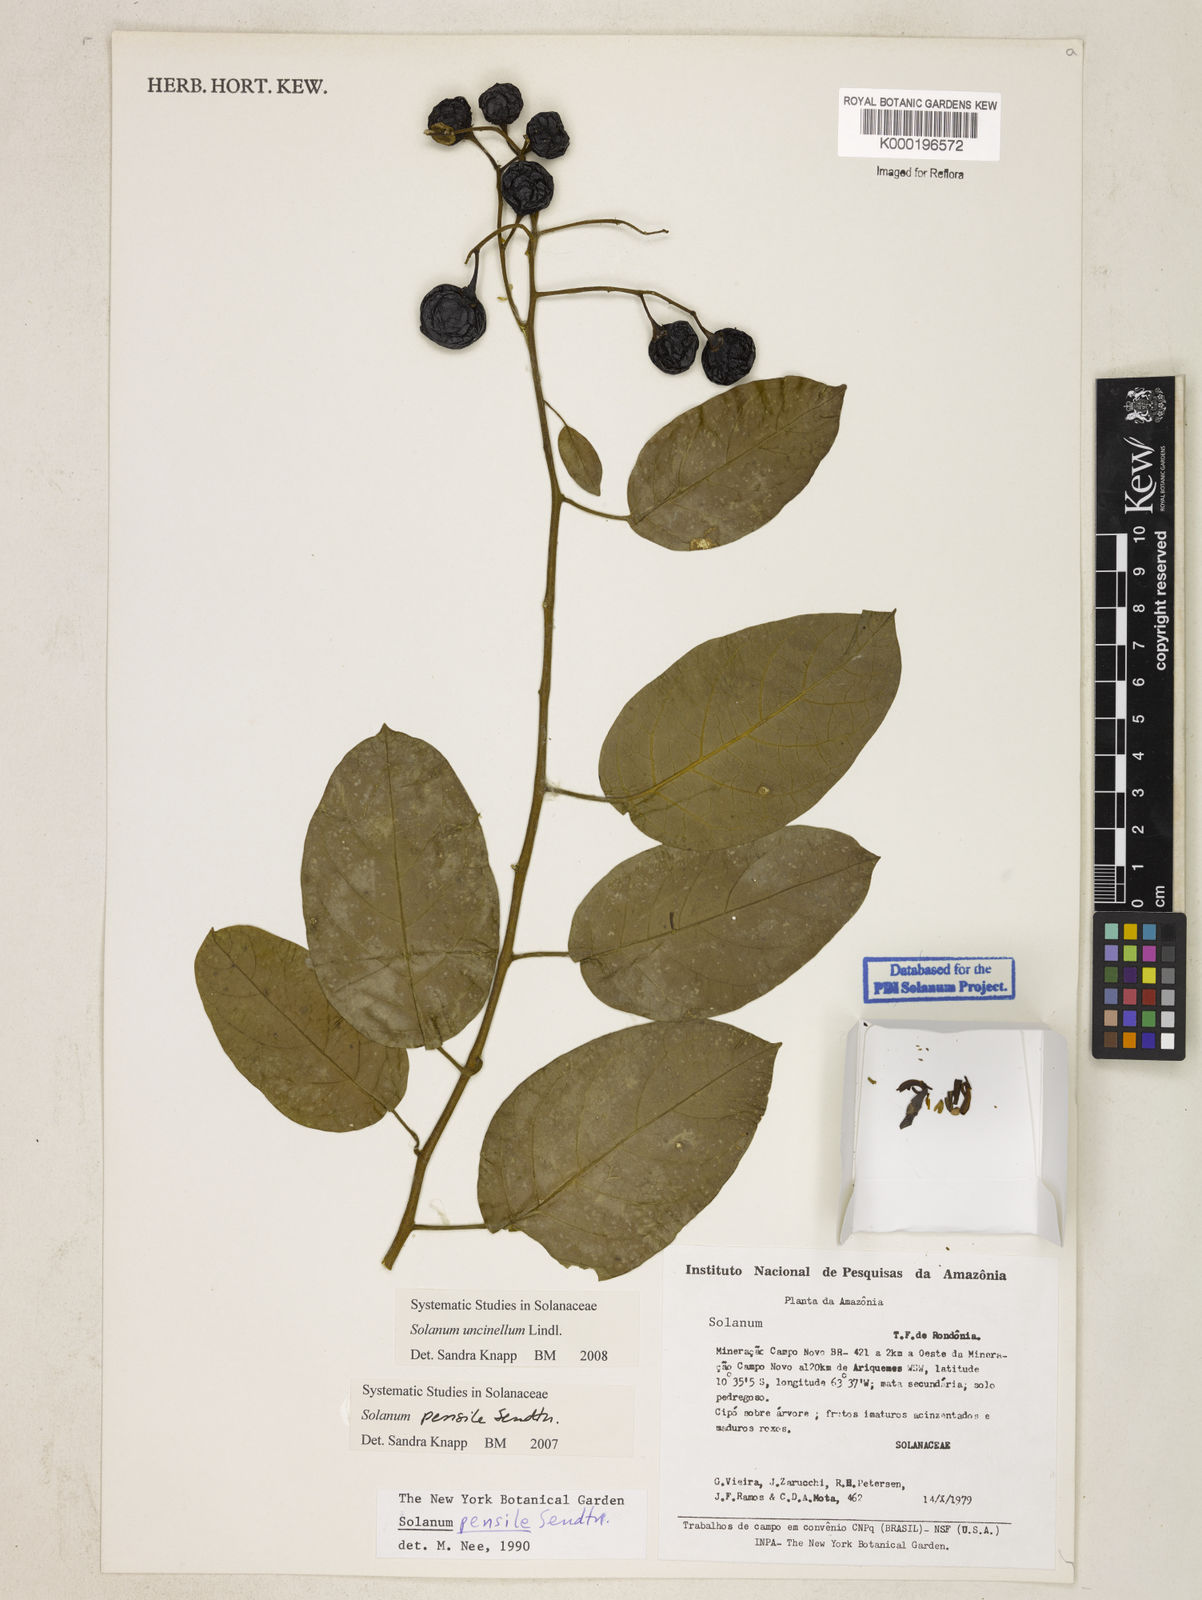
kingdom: Plantae
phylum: Tracheophyta
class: Magnoliopsida
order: Solanales
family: Solanaceae
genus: Solanum
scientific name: Solanum uncinellum
